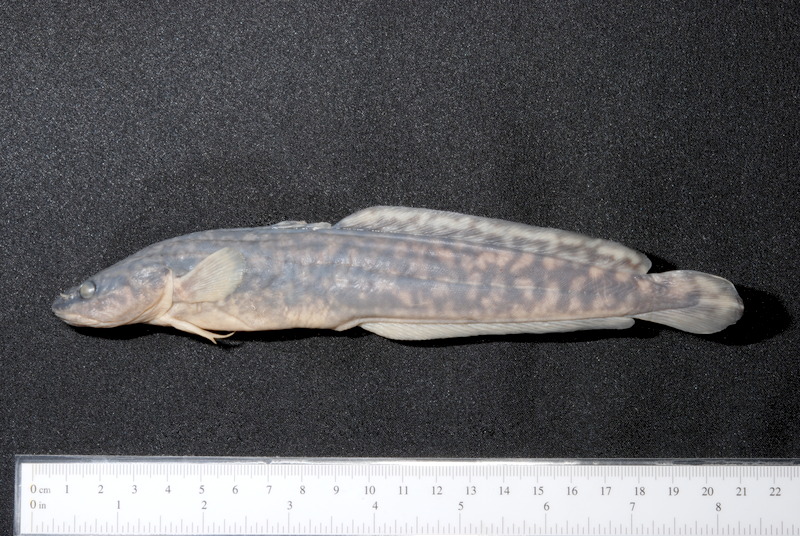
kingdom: Animalia
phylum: Chordata
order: Gadiformes
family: Lotidae
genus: Lota
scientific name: Lota lota
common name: Burbot
